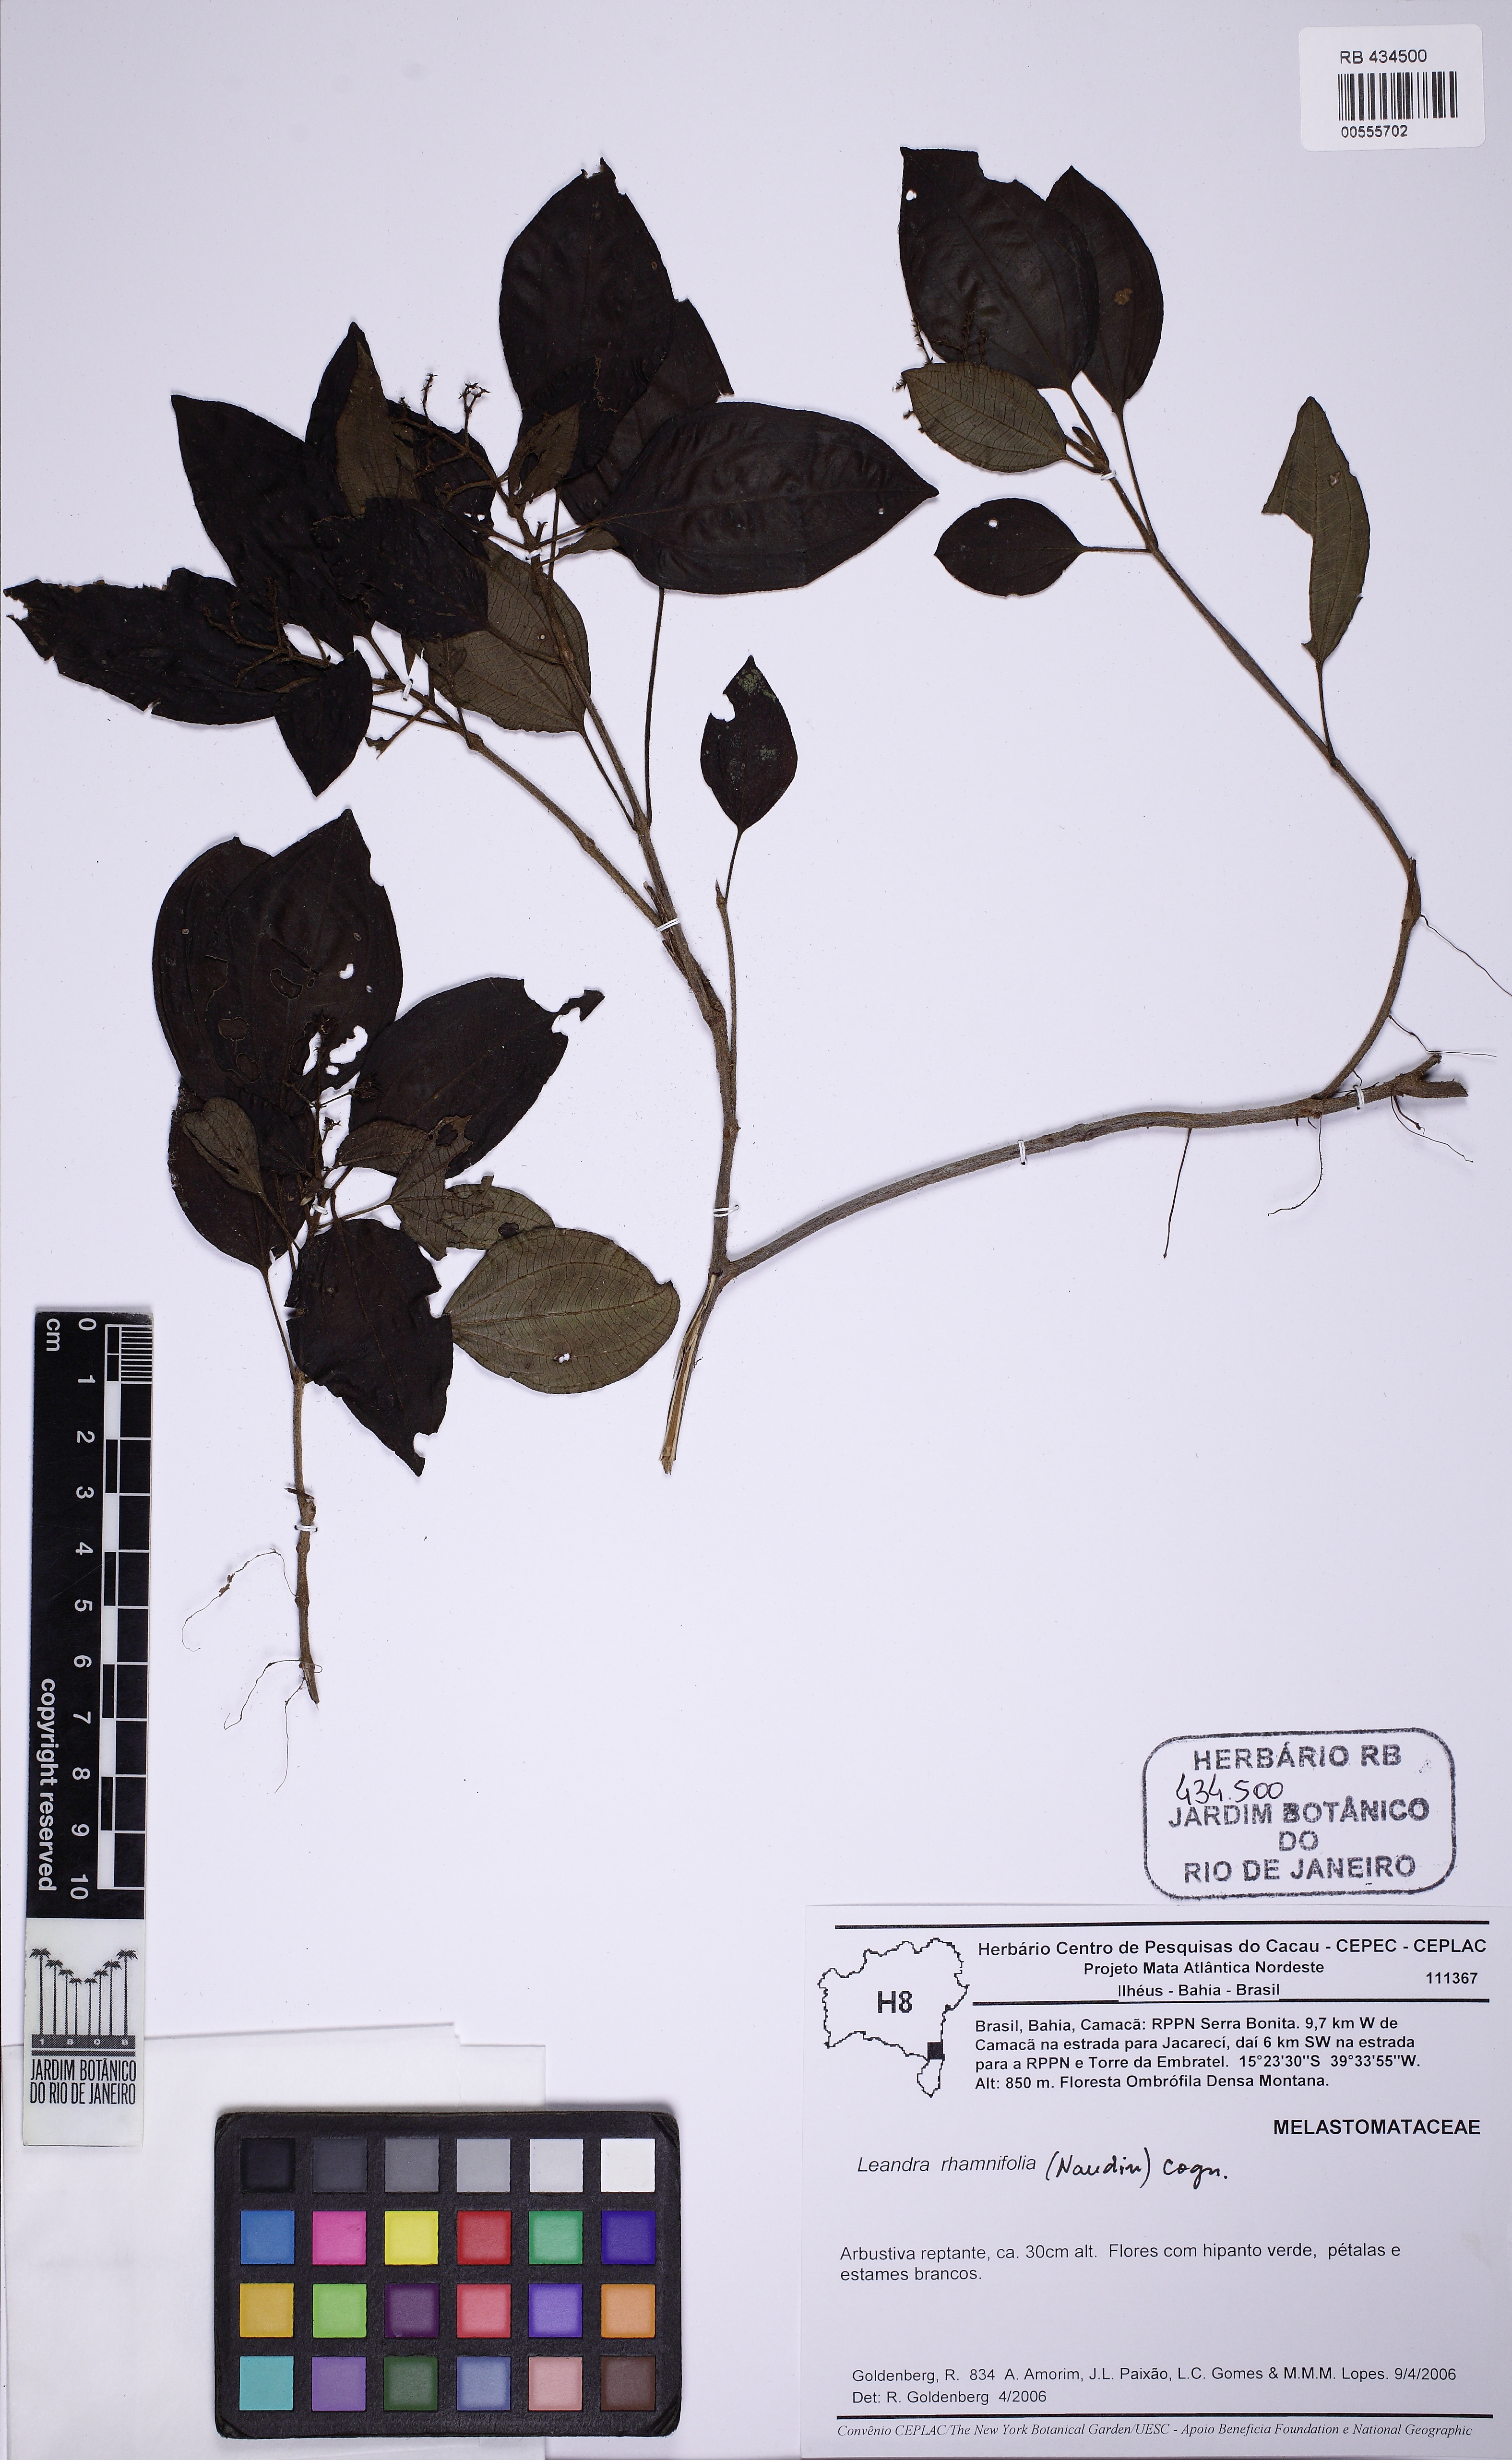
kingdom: Plantae
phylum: Tracheophyta
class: Magnoliopsida
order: Myrtales
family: Melastomataceae
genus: Miconia
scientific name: Miconia rhamnifolia
